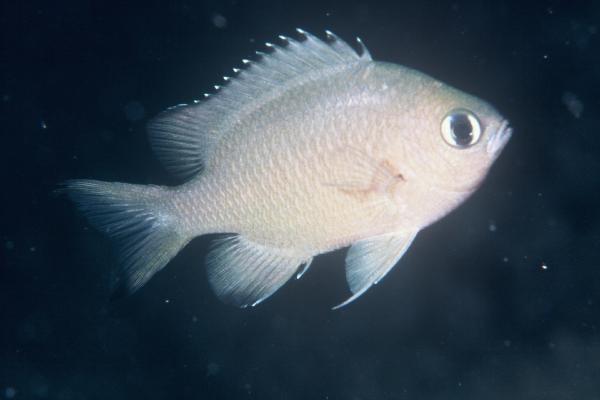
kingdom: Animalia
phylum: Chordata
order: Perciformes
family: Pomacentridae
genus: Chromis
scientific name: Chromis lepidolepis
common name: Scaly chromis
